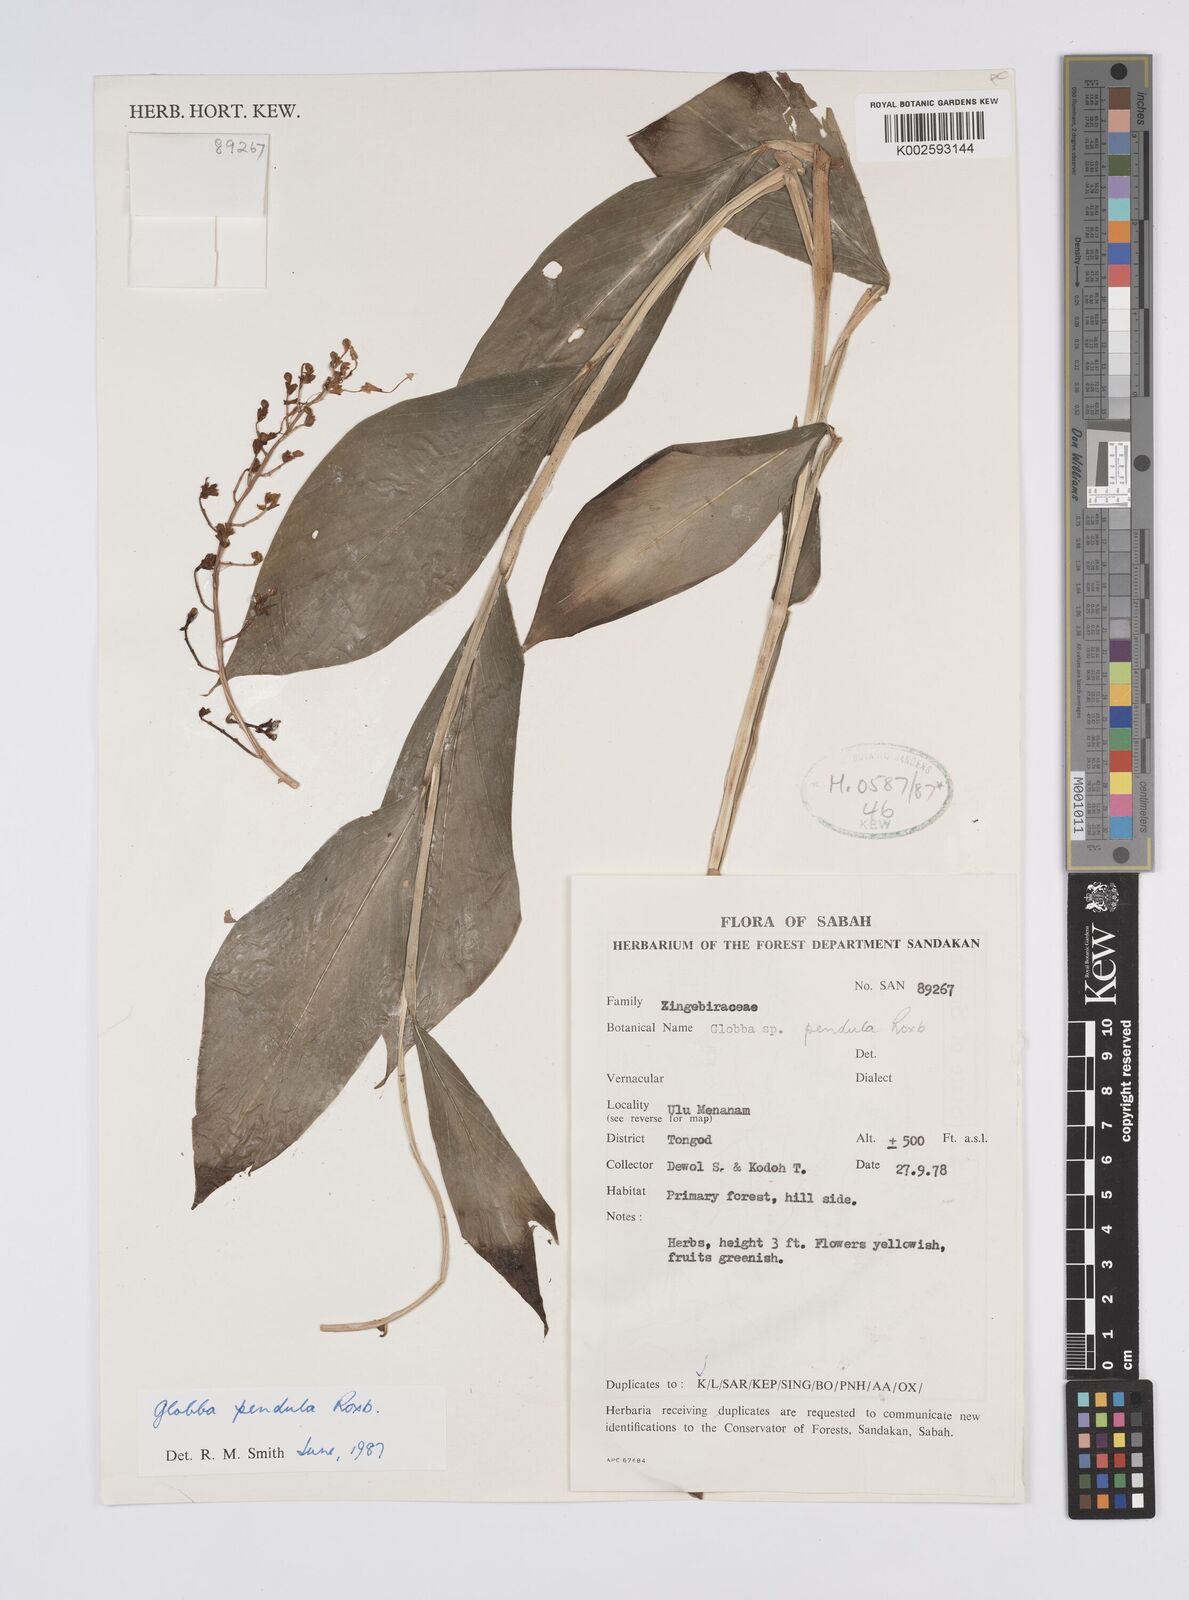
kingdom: Plantae
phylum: Tracheophyta
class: Liliopsida
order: Zingiberales
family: Zingiberaceae
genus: Globba
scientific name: Globba pendula
